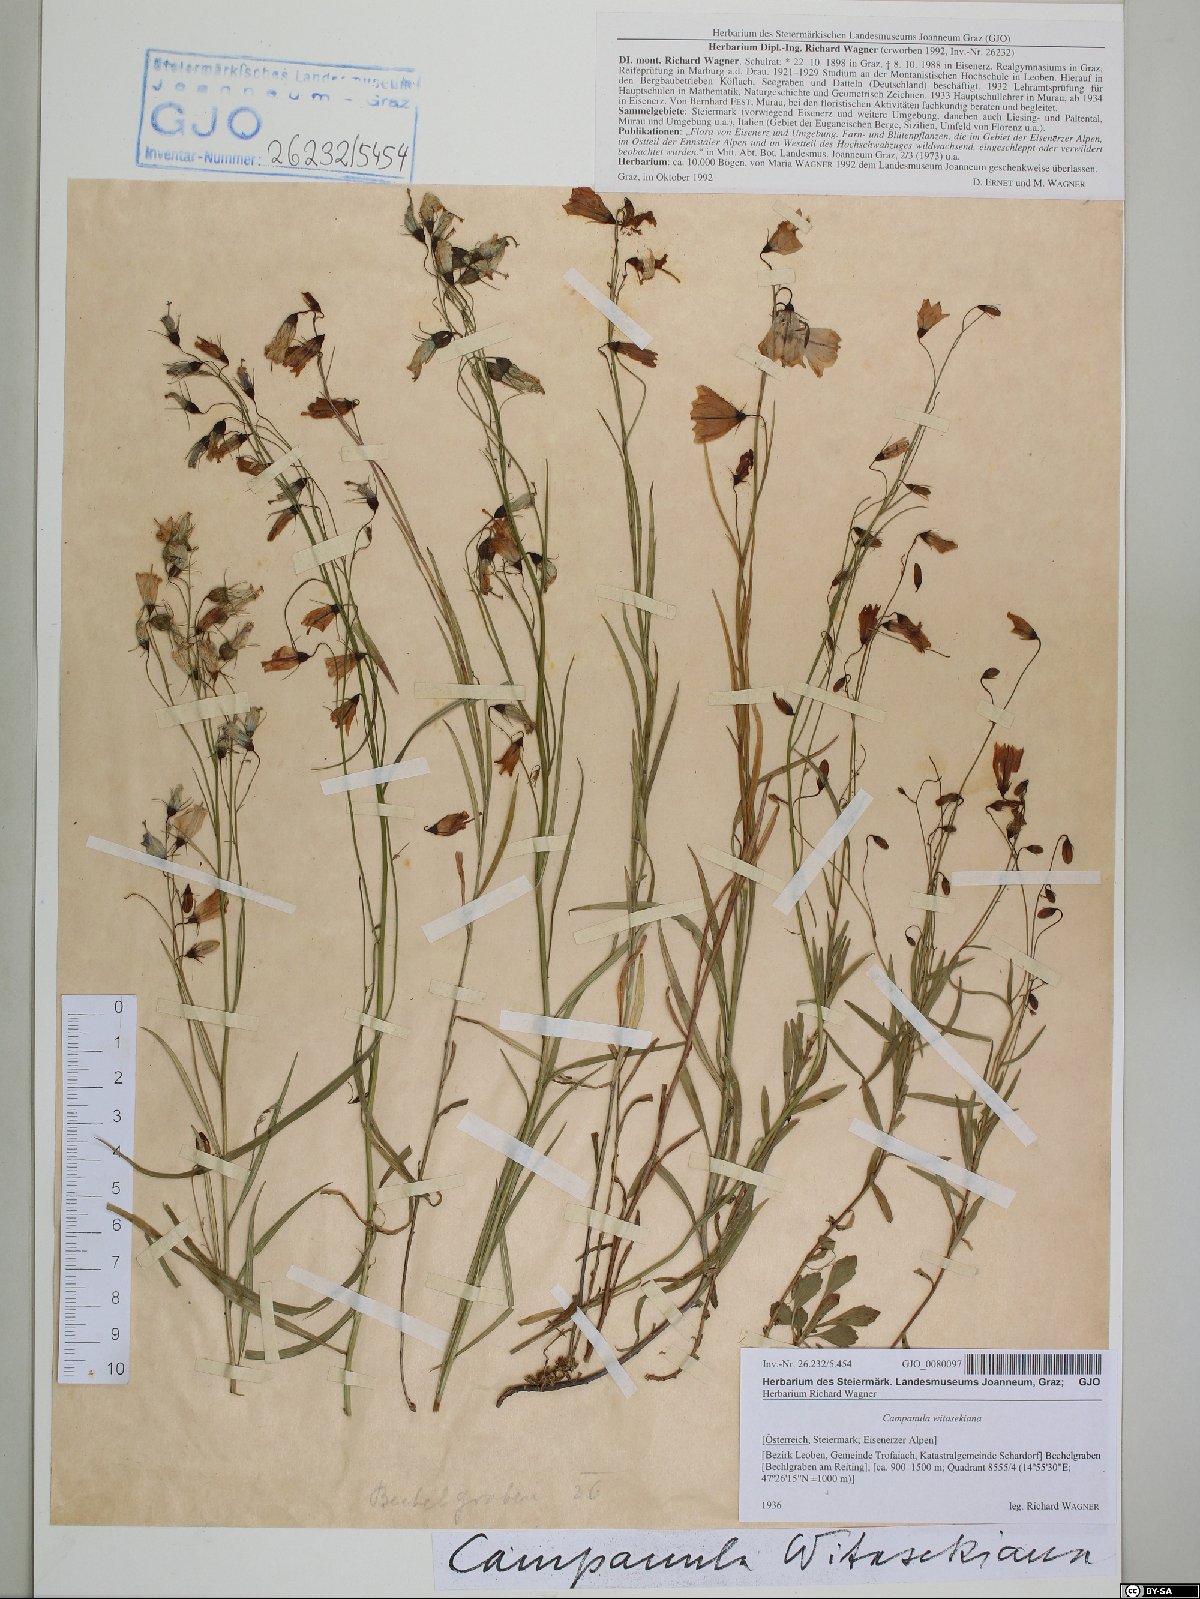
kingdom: Plantae
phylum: Tracheophyta
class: Magnoliopsida
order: Asterales
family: Campanulaceae
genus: Campanula
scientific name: Campanula witasekiana
